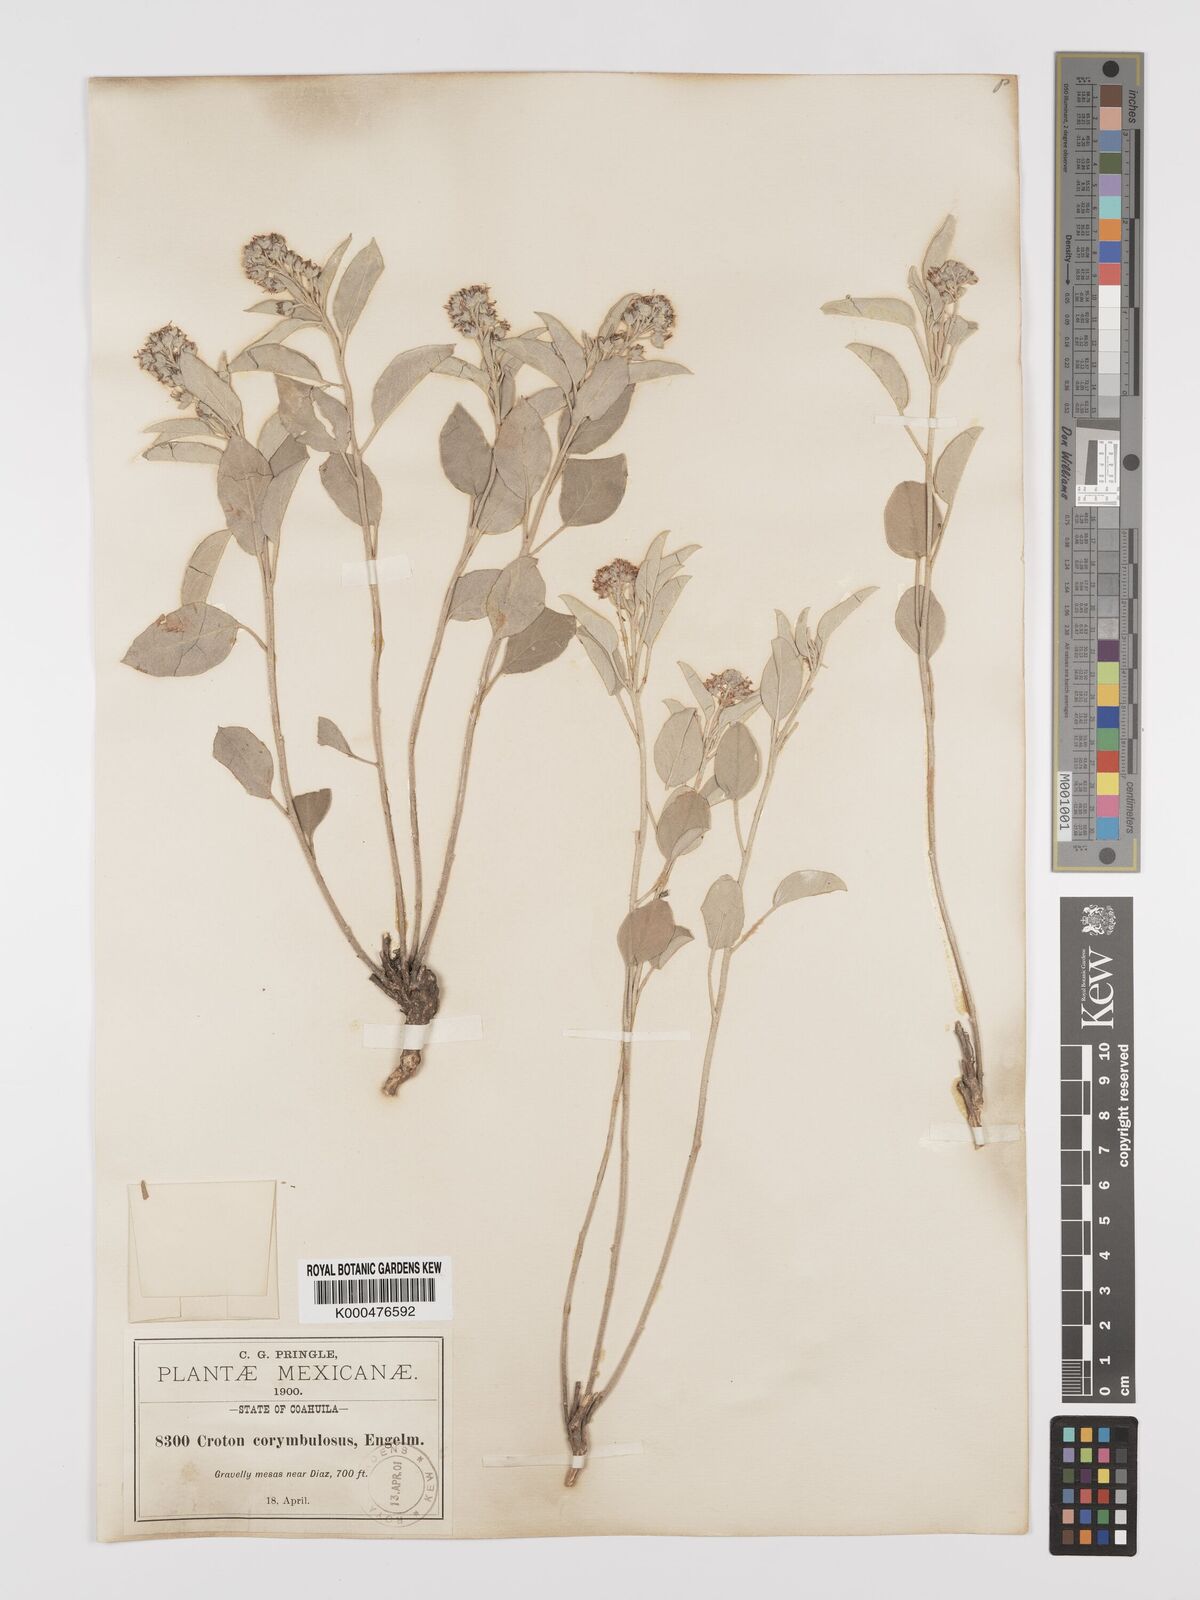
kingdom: Plantae
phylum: Tracheophyta
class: Magnoliopsida
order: Malpighiales
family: Euphorbiaceae
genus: Croton
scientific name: Croton
